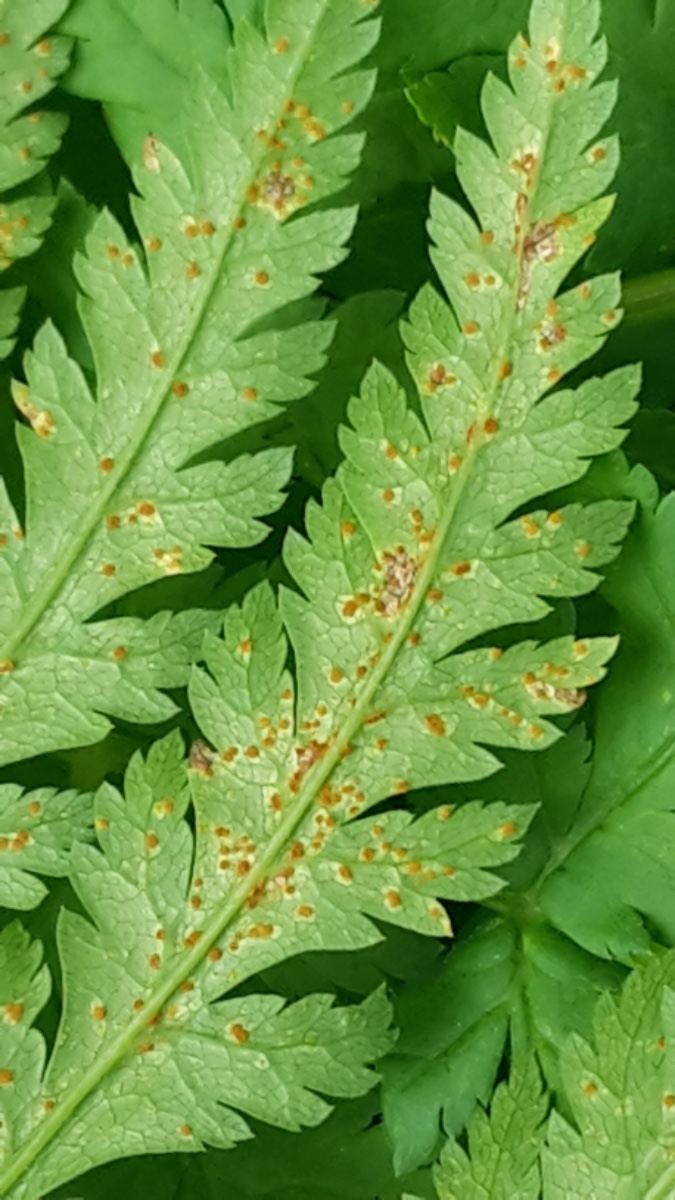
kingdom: Fungi
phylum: Basidiomycota
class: Pucciniomycetes
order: Pucciniales
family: Pucciniaceae
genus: Puccinia
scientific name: Puccinia chaerophylli
